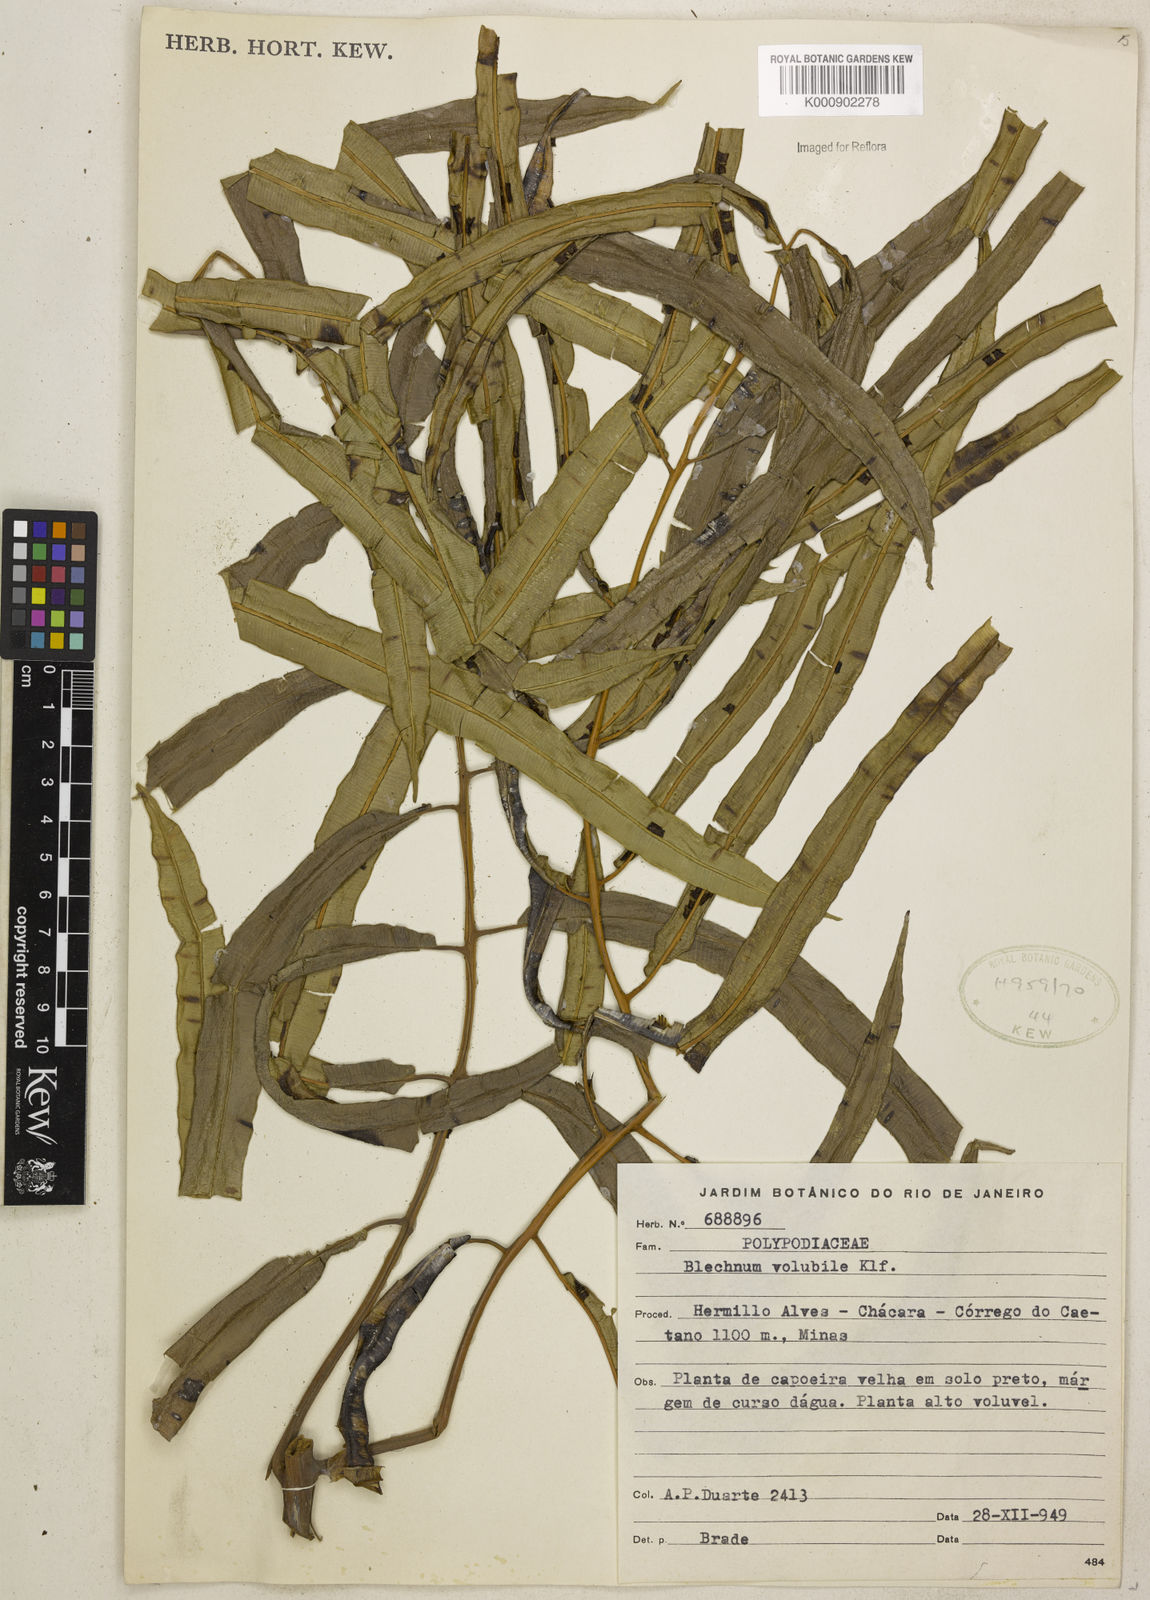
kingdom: Plantae
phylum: Tracheophyta
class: Polypodiopsida
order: Polypodiales
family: Blechnaceae
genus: Salpichlaena
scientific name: Salpichlaena volubilis
